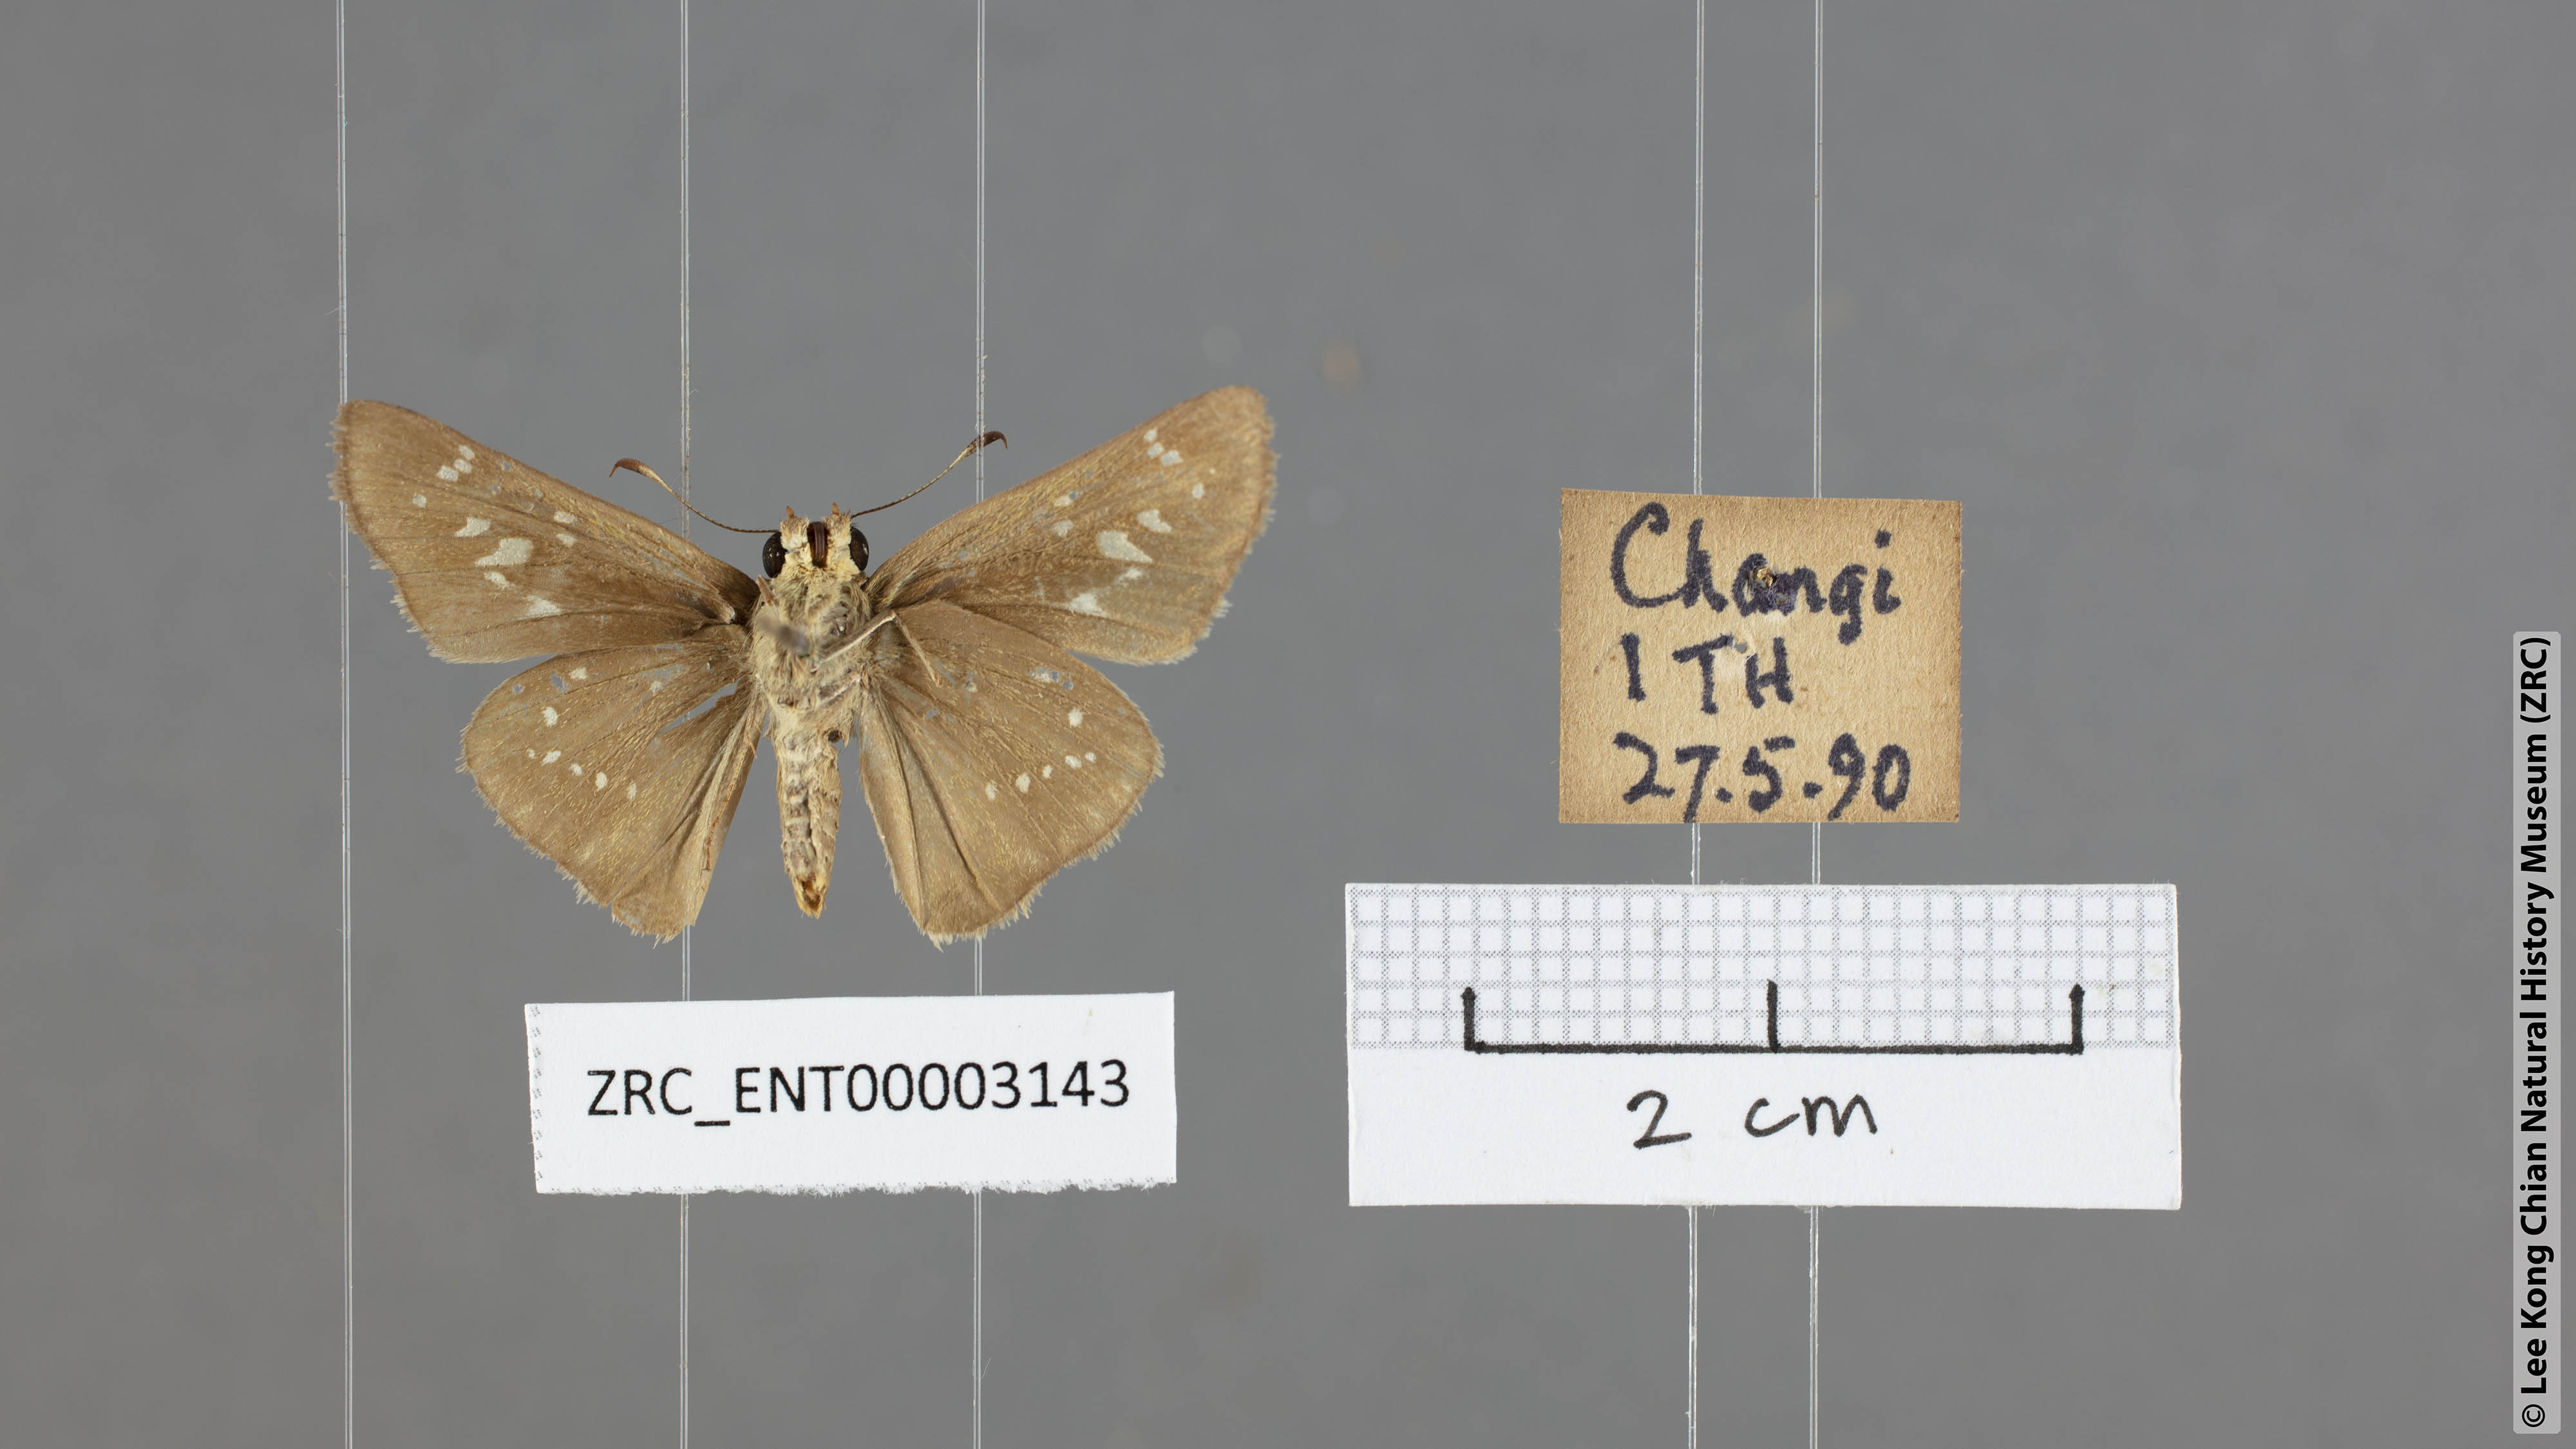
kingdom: Animalia
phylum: Arthropoda
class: Insecta
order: Lepidoptera
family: Hesperiidae
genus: Borbo
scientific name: Borbo cinnara
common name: Formosan swift
